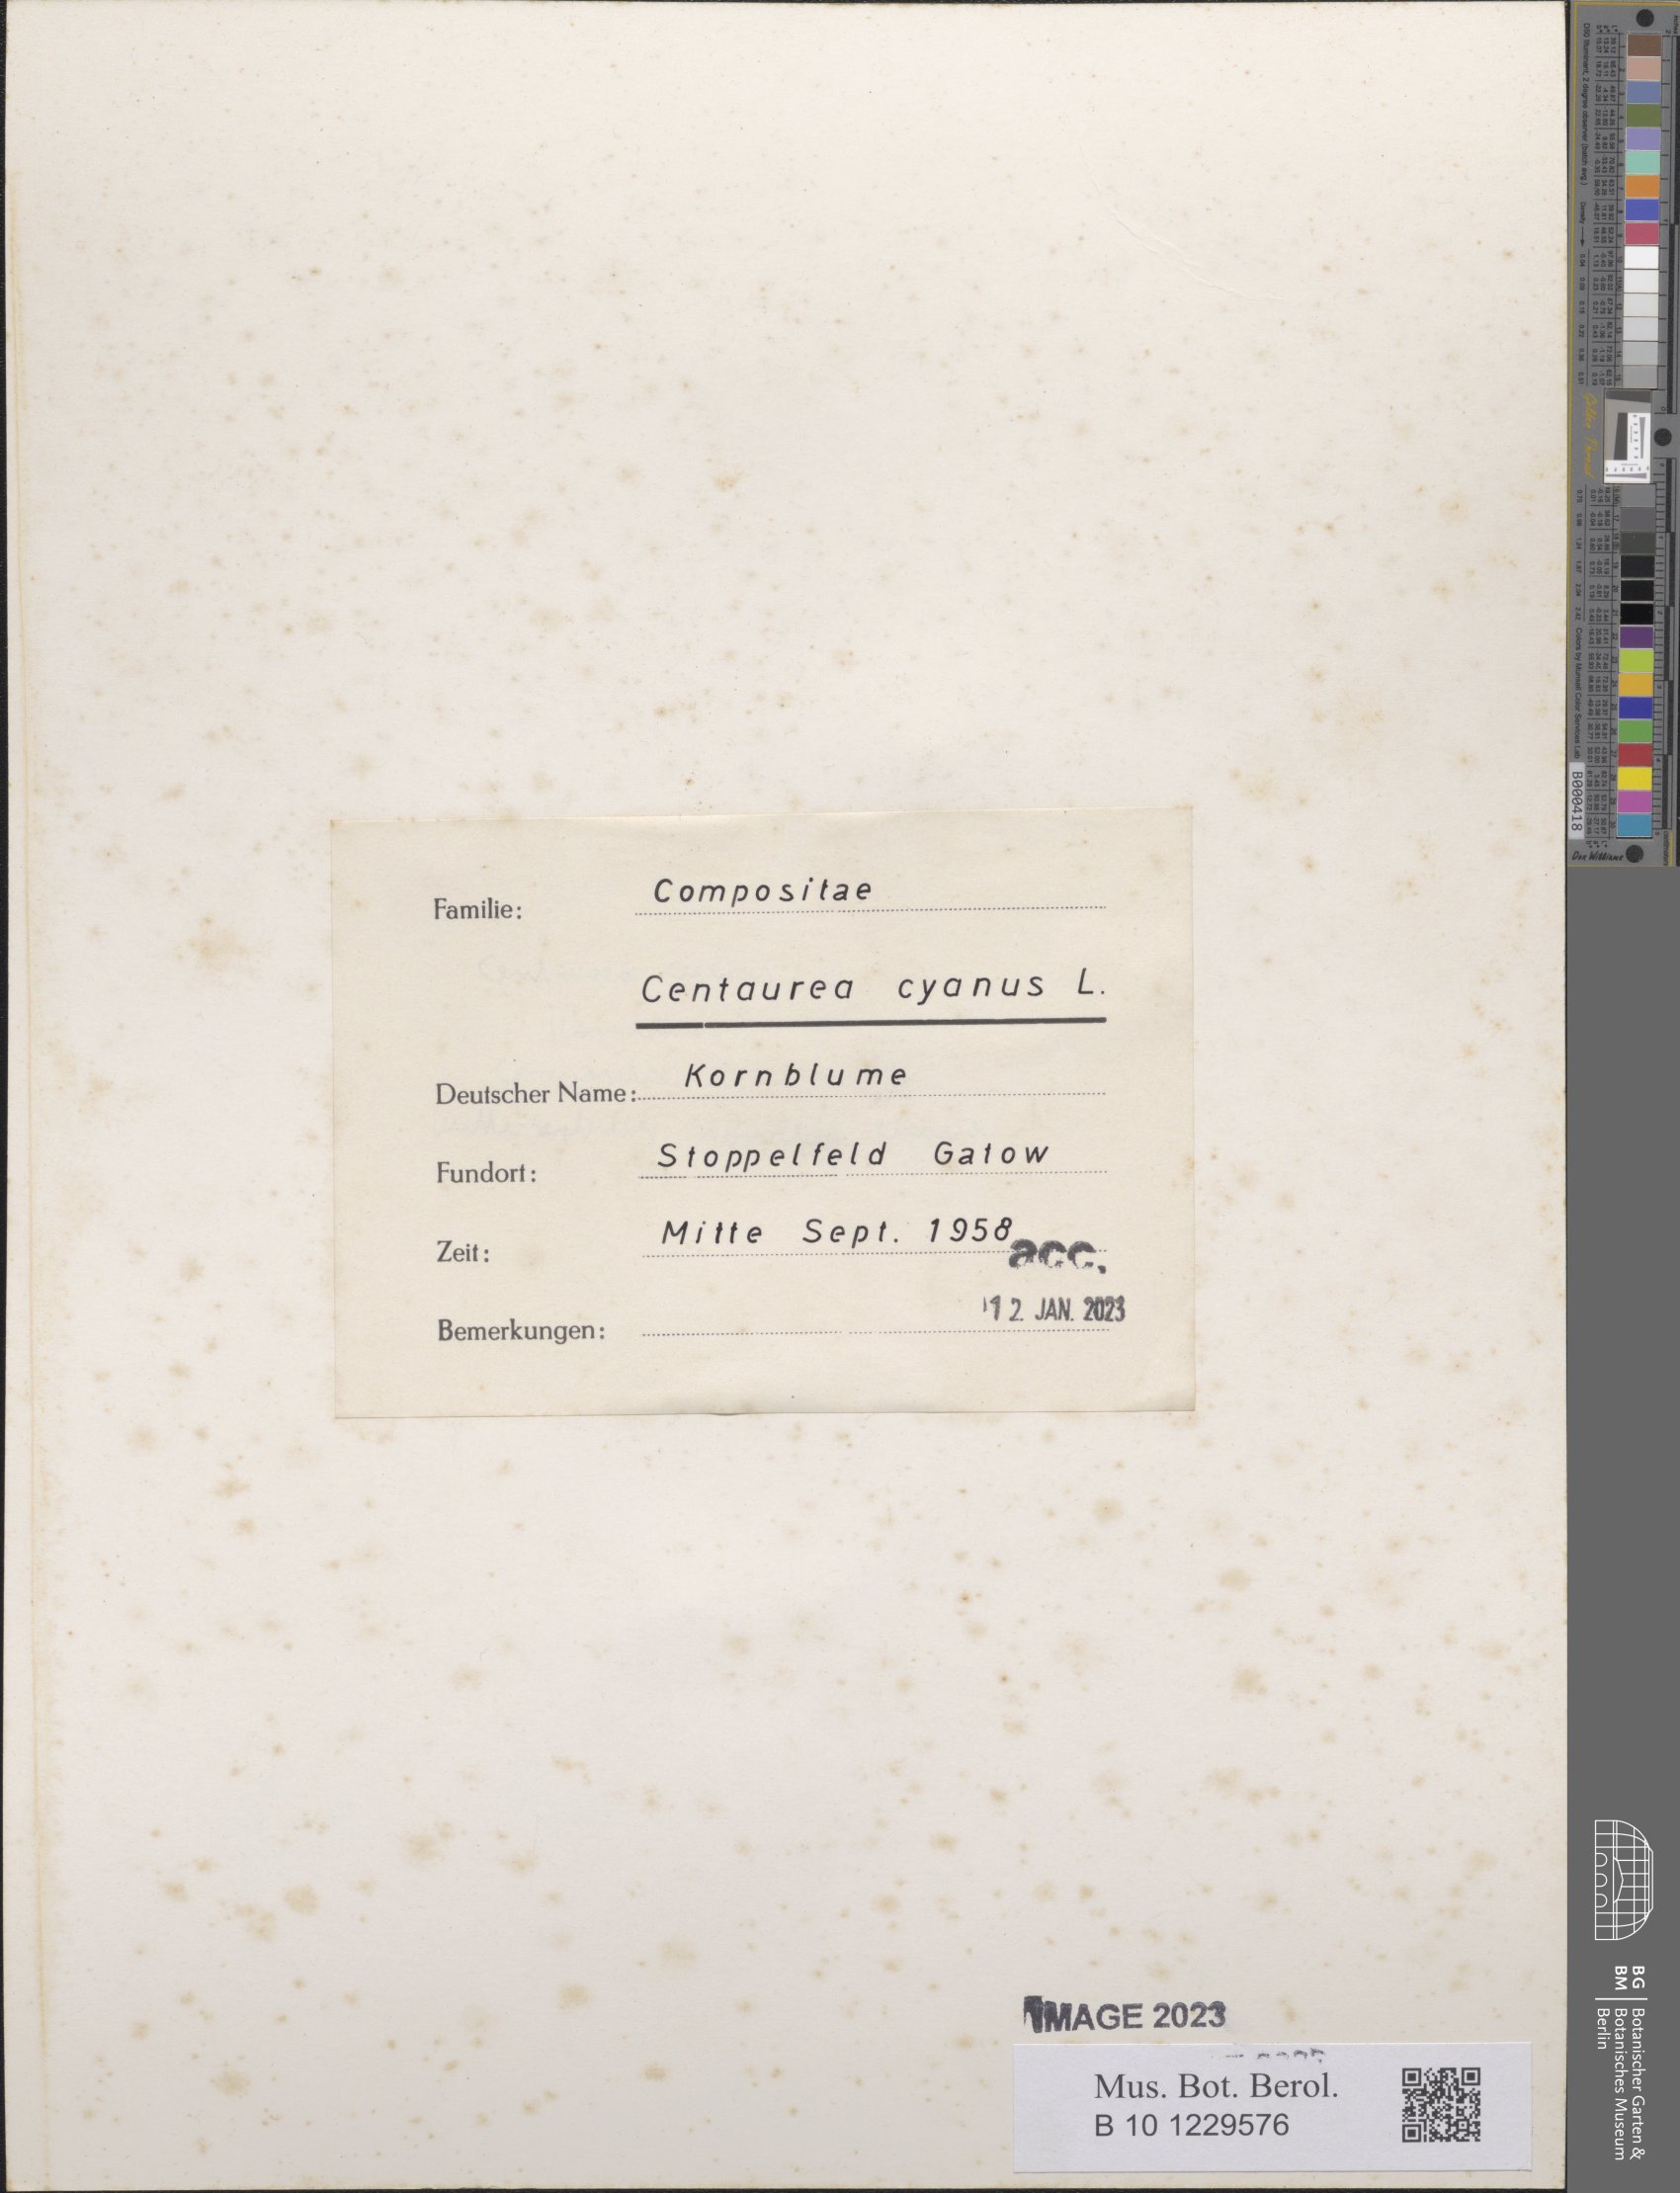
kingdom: Plantae
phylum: Tracheophyta
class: Magnoliopsida
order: Asterales
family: Asteraceae
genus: Centaurea
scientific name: Centaurea cyanus
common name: Cornflower
